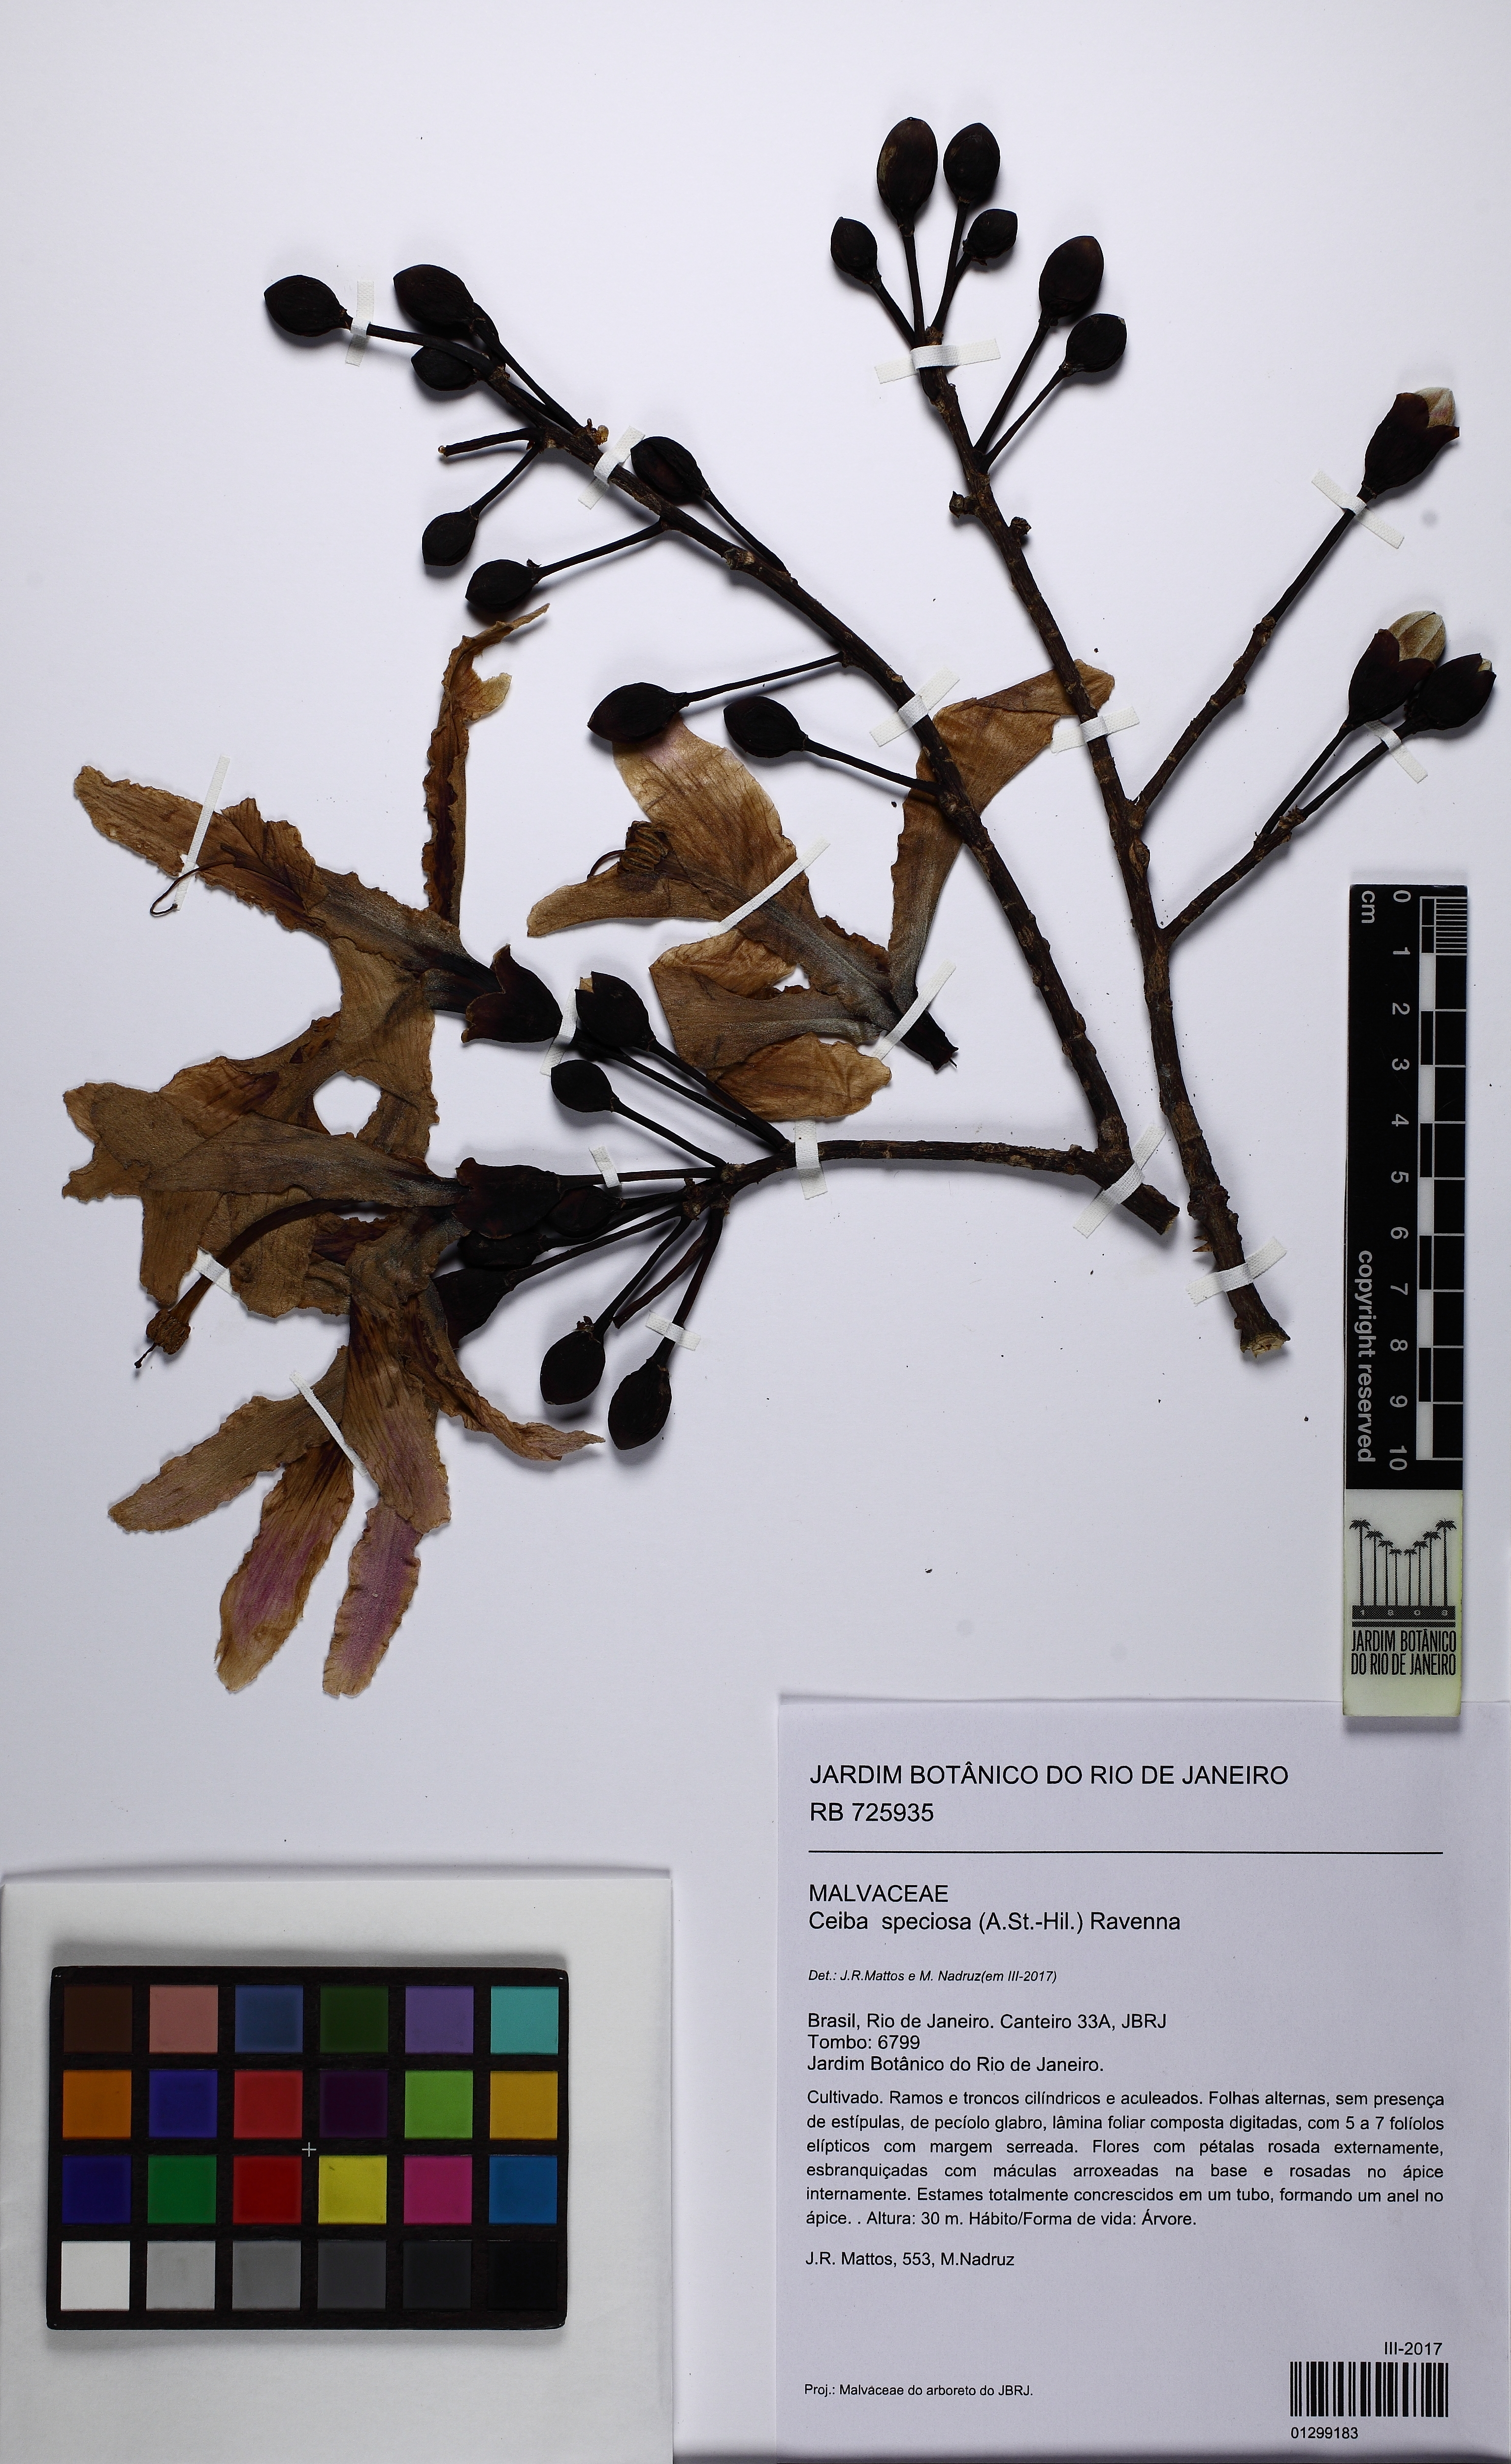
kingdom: Plantae
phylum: Tracheophyta
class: Magnoliopsida
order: Malvales
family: Malvaceae
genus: Ceiba
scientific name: Ceiba speciosa
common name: Silk-floss tree
